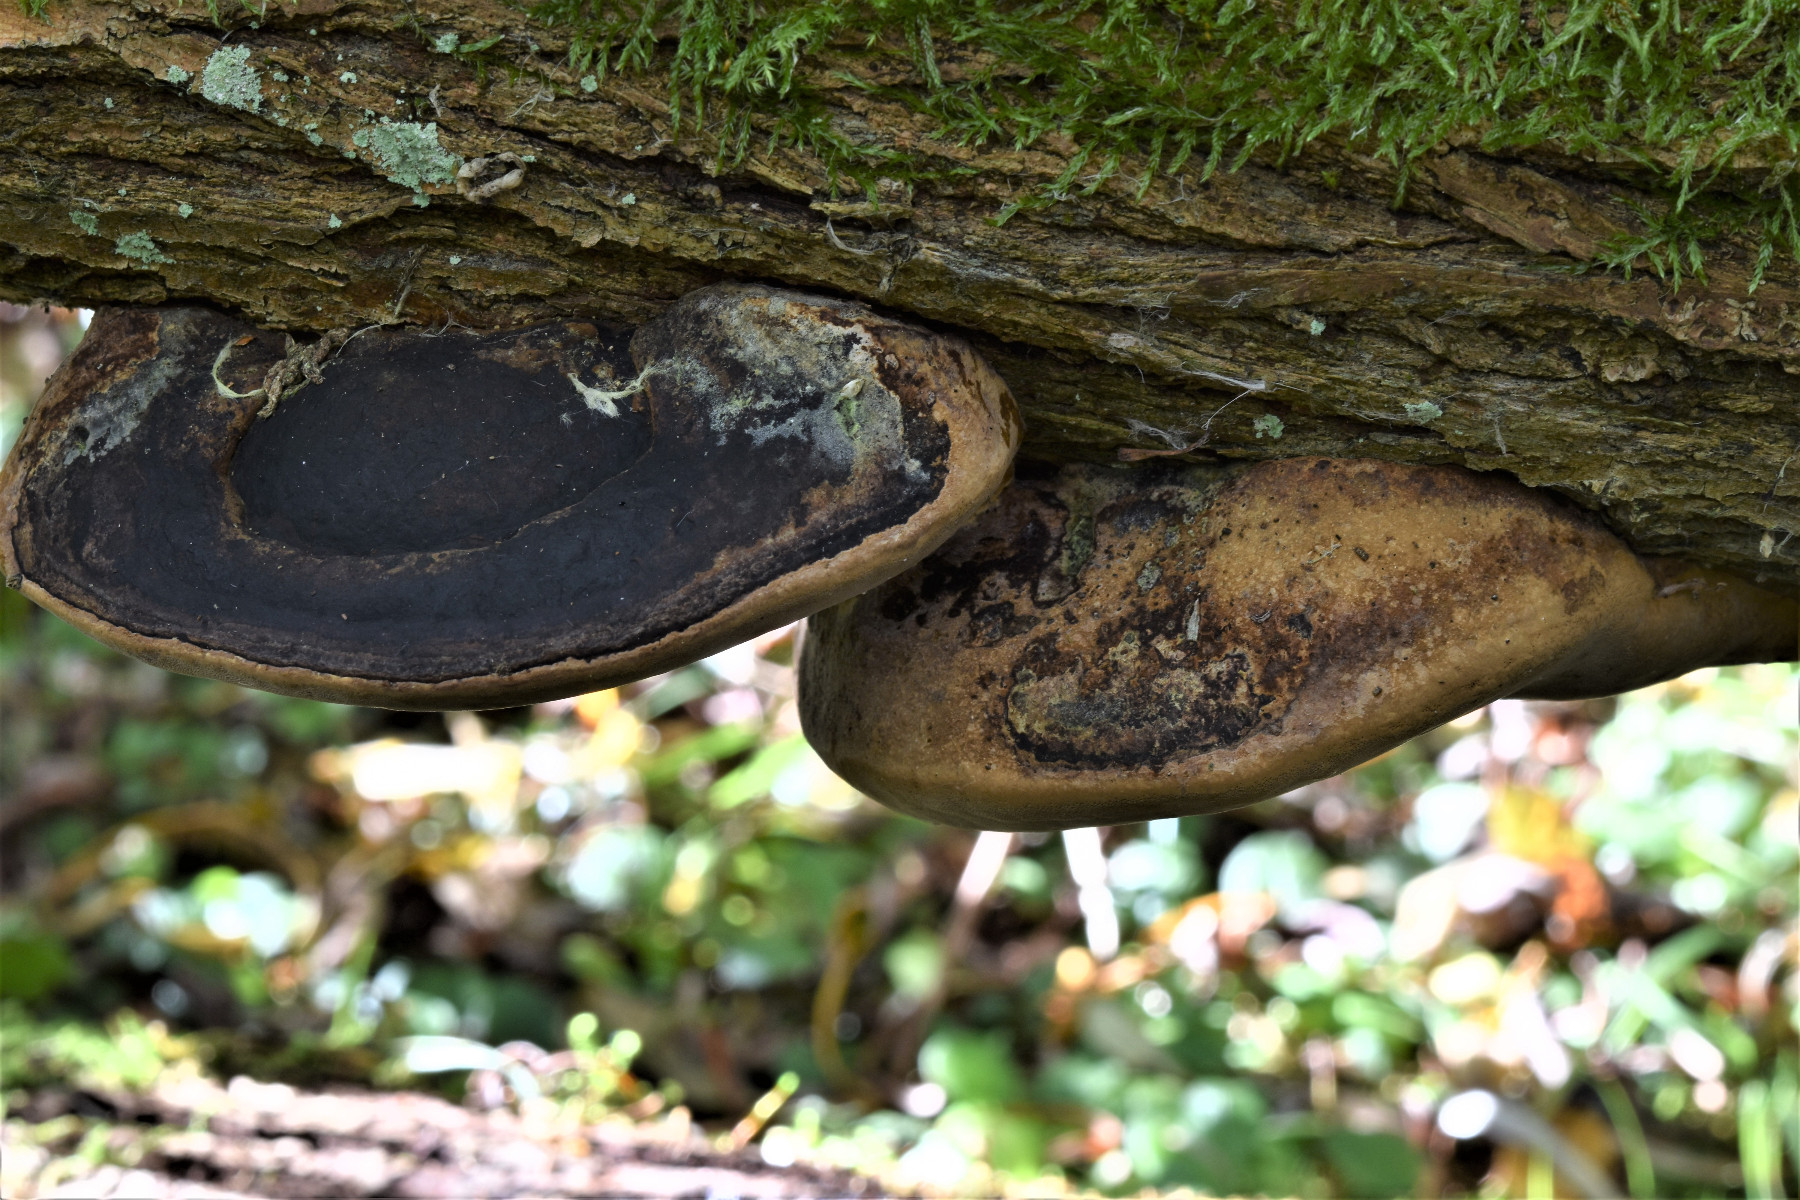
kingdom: Fungi
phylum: Basidiomycota
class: Agaricomycetes
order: Hymenochaetales
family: Hymenochaetaceae
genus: Phellinus
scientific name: Phellinus igniarius
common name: almindelig ildporesvamp
